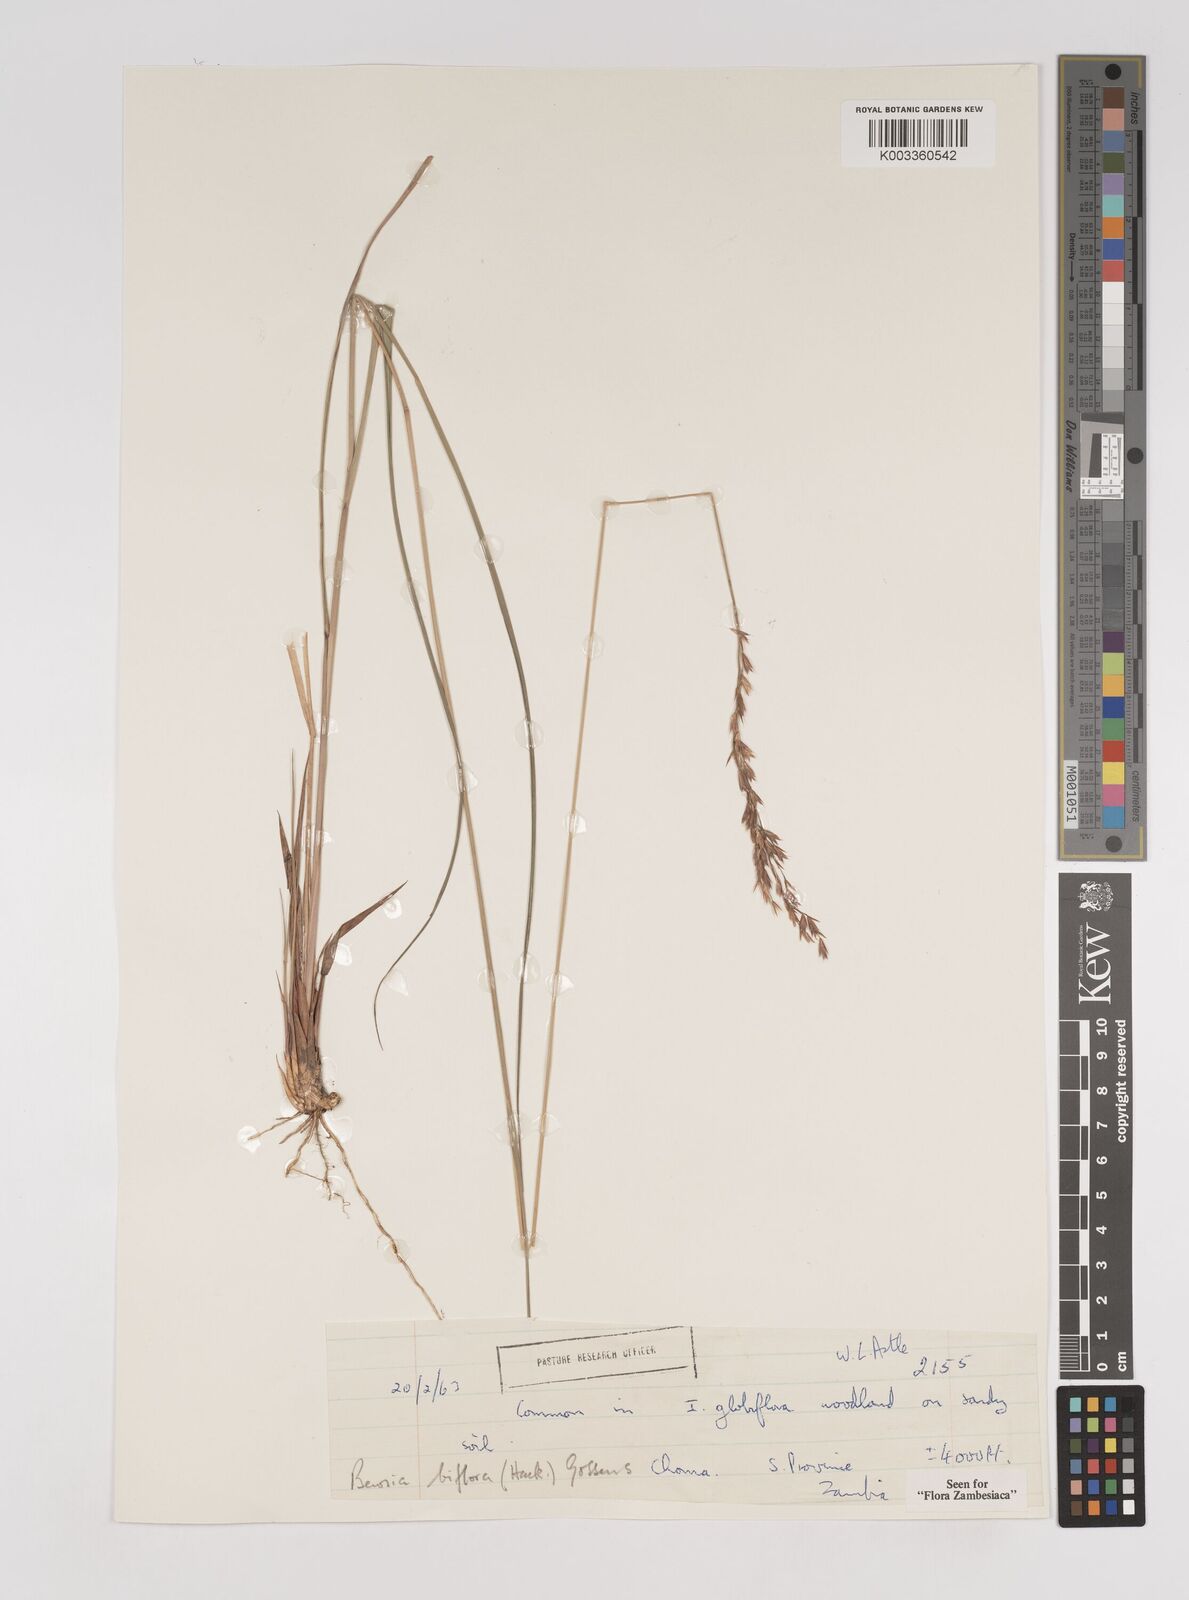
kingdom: Plantae
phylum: Tracheophyta
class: Liliopsida
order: Poales
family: Poaceae
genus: Bewsia
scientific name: Bewsia biflora
